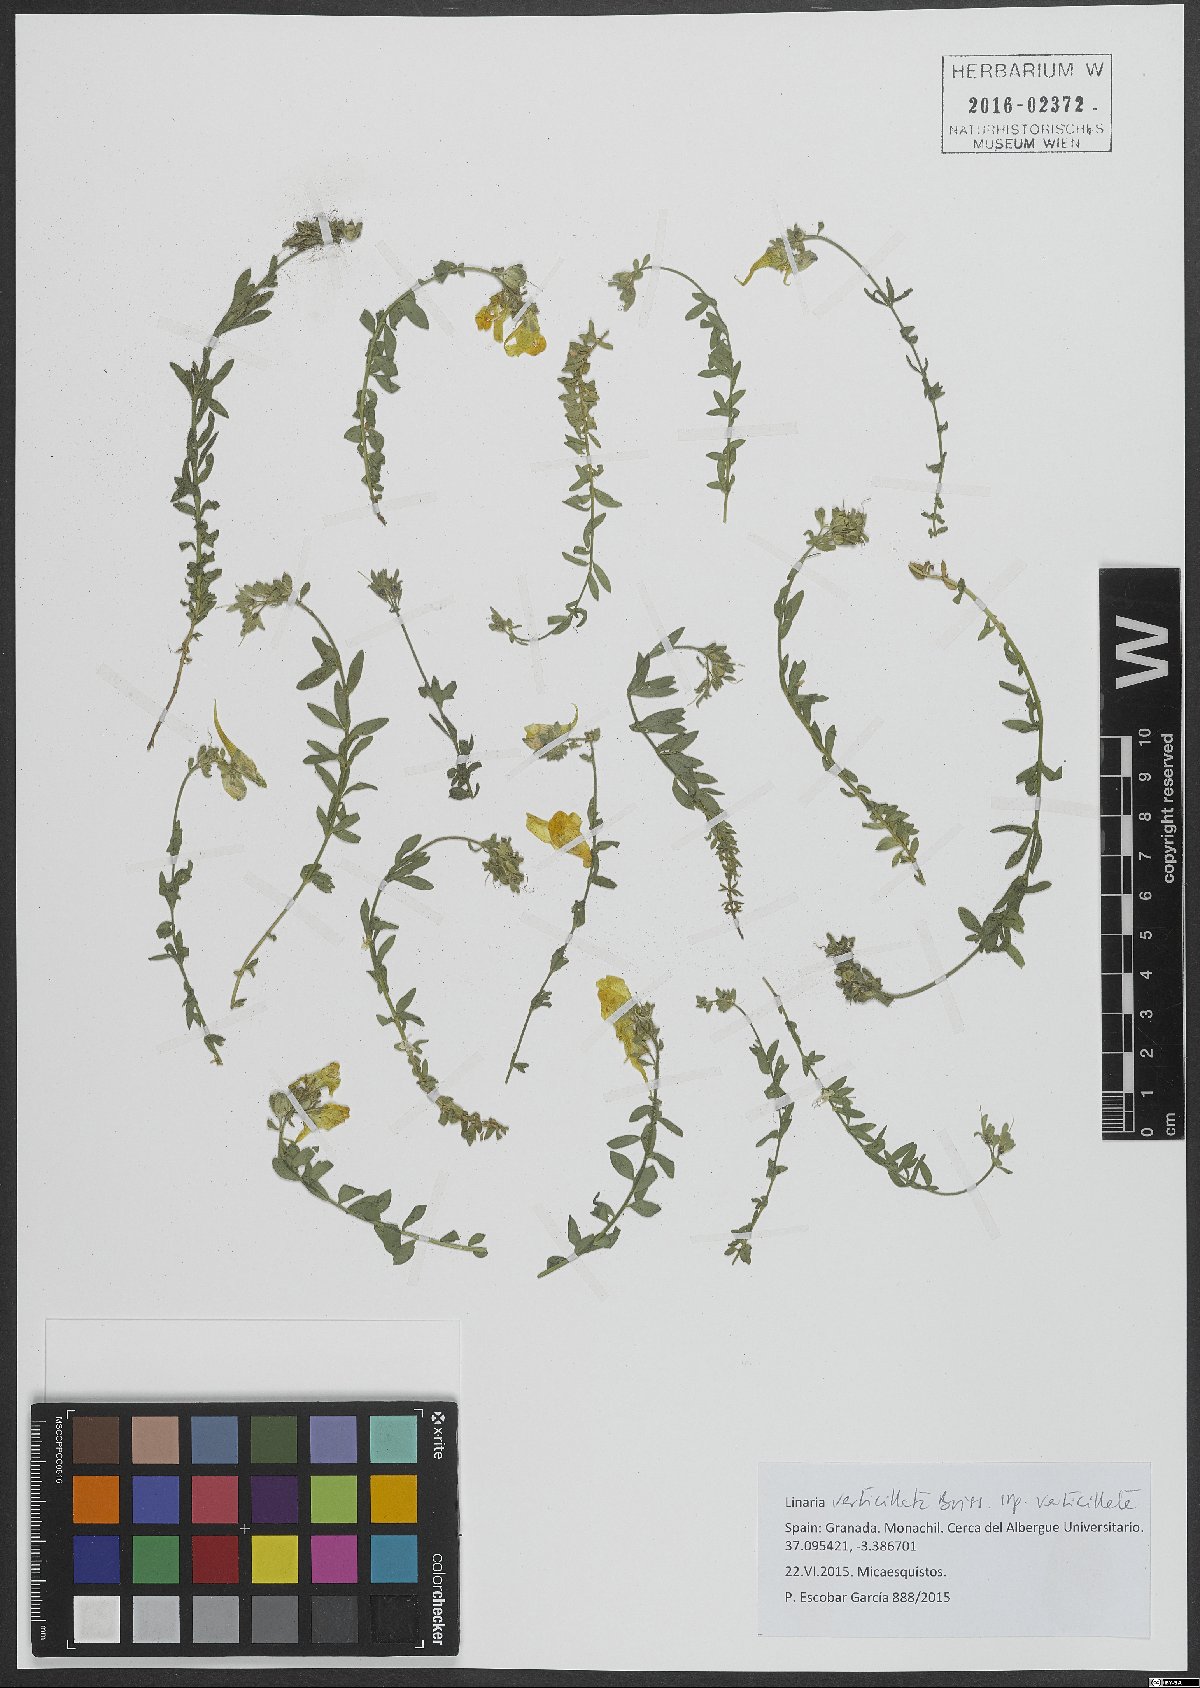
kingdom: Plantae
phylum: Tracheophyta
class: Magnoliopsida
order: Lamiales
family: Plantaginaceae
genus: Linaria
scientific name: Linaria verticillata
